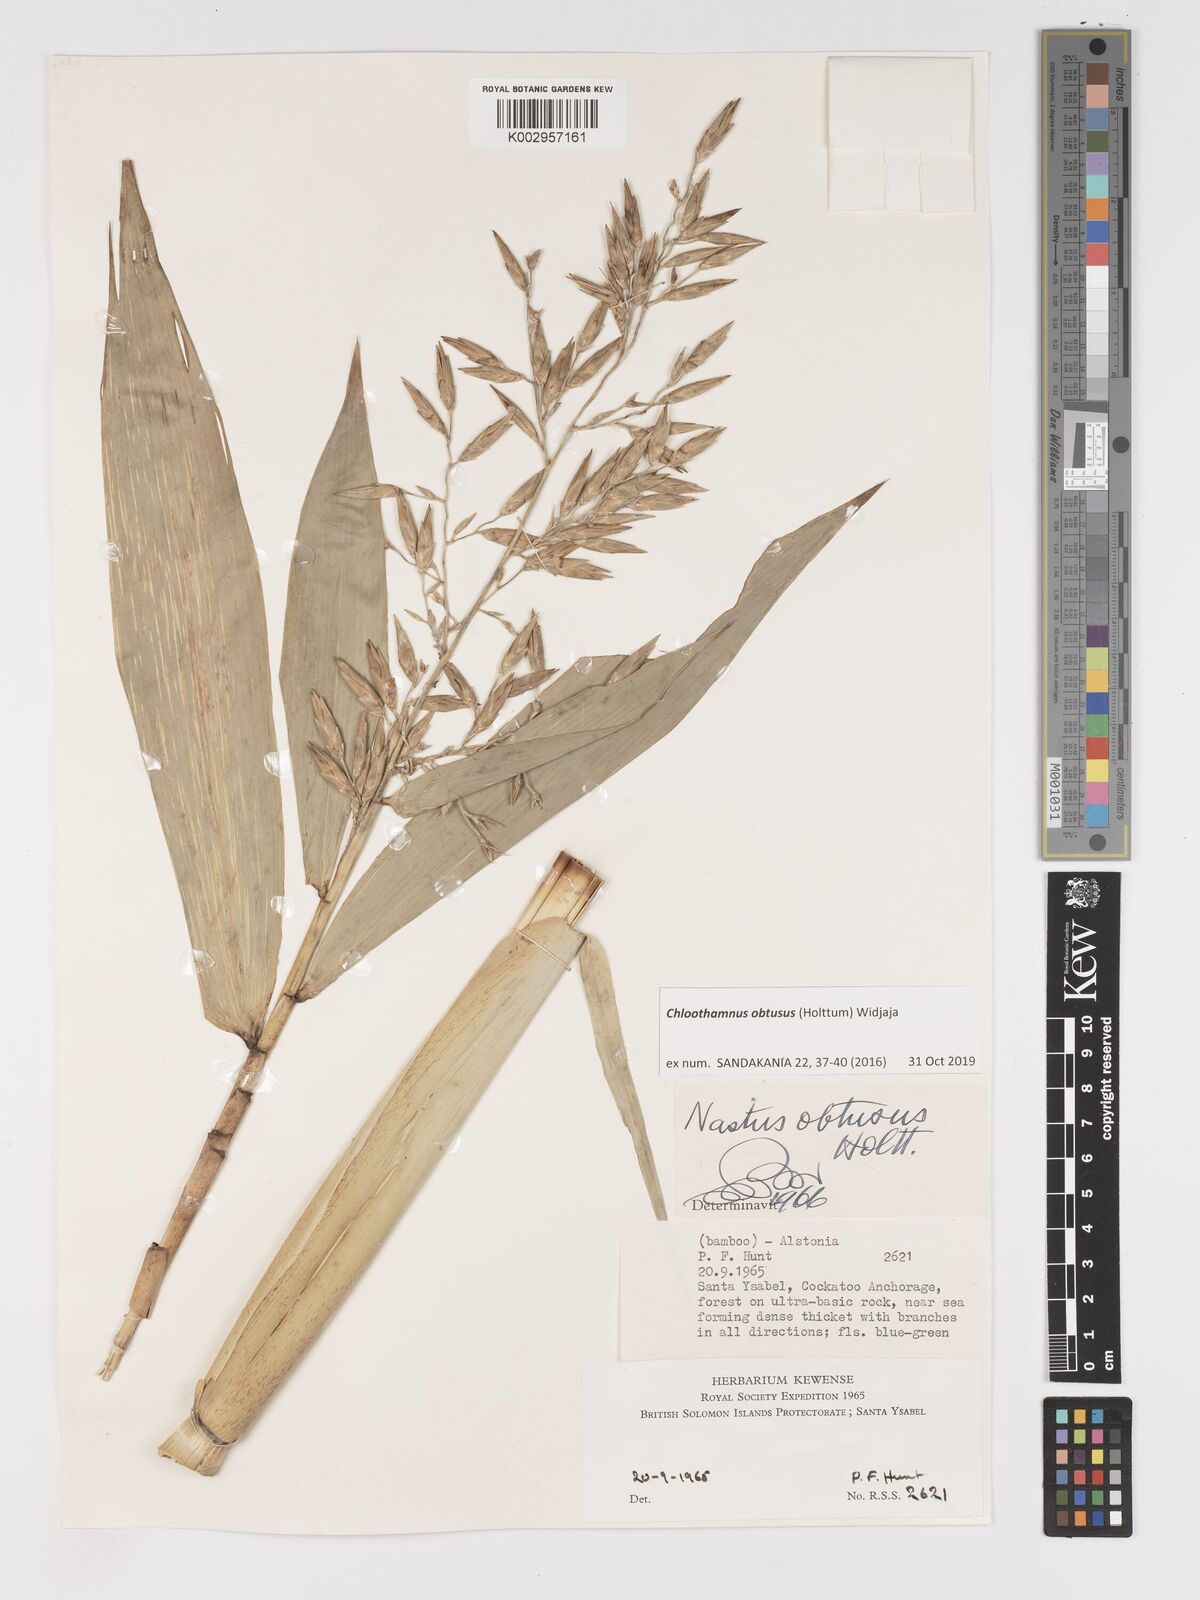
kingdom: Plantae
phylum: Tracheophyta
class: Liliopsida
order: Poales
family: Poaceae
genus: Chloothamnus
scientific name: Chloothamnus obtusus
